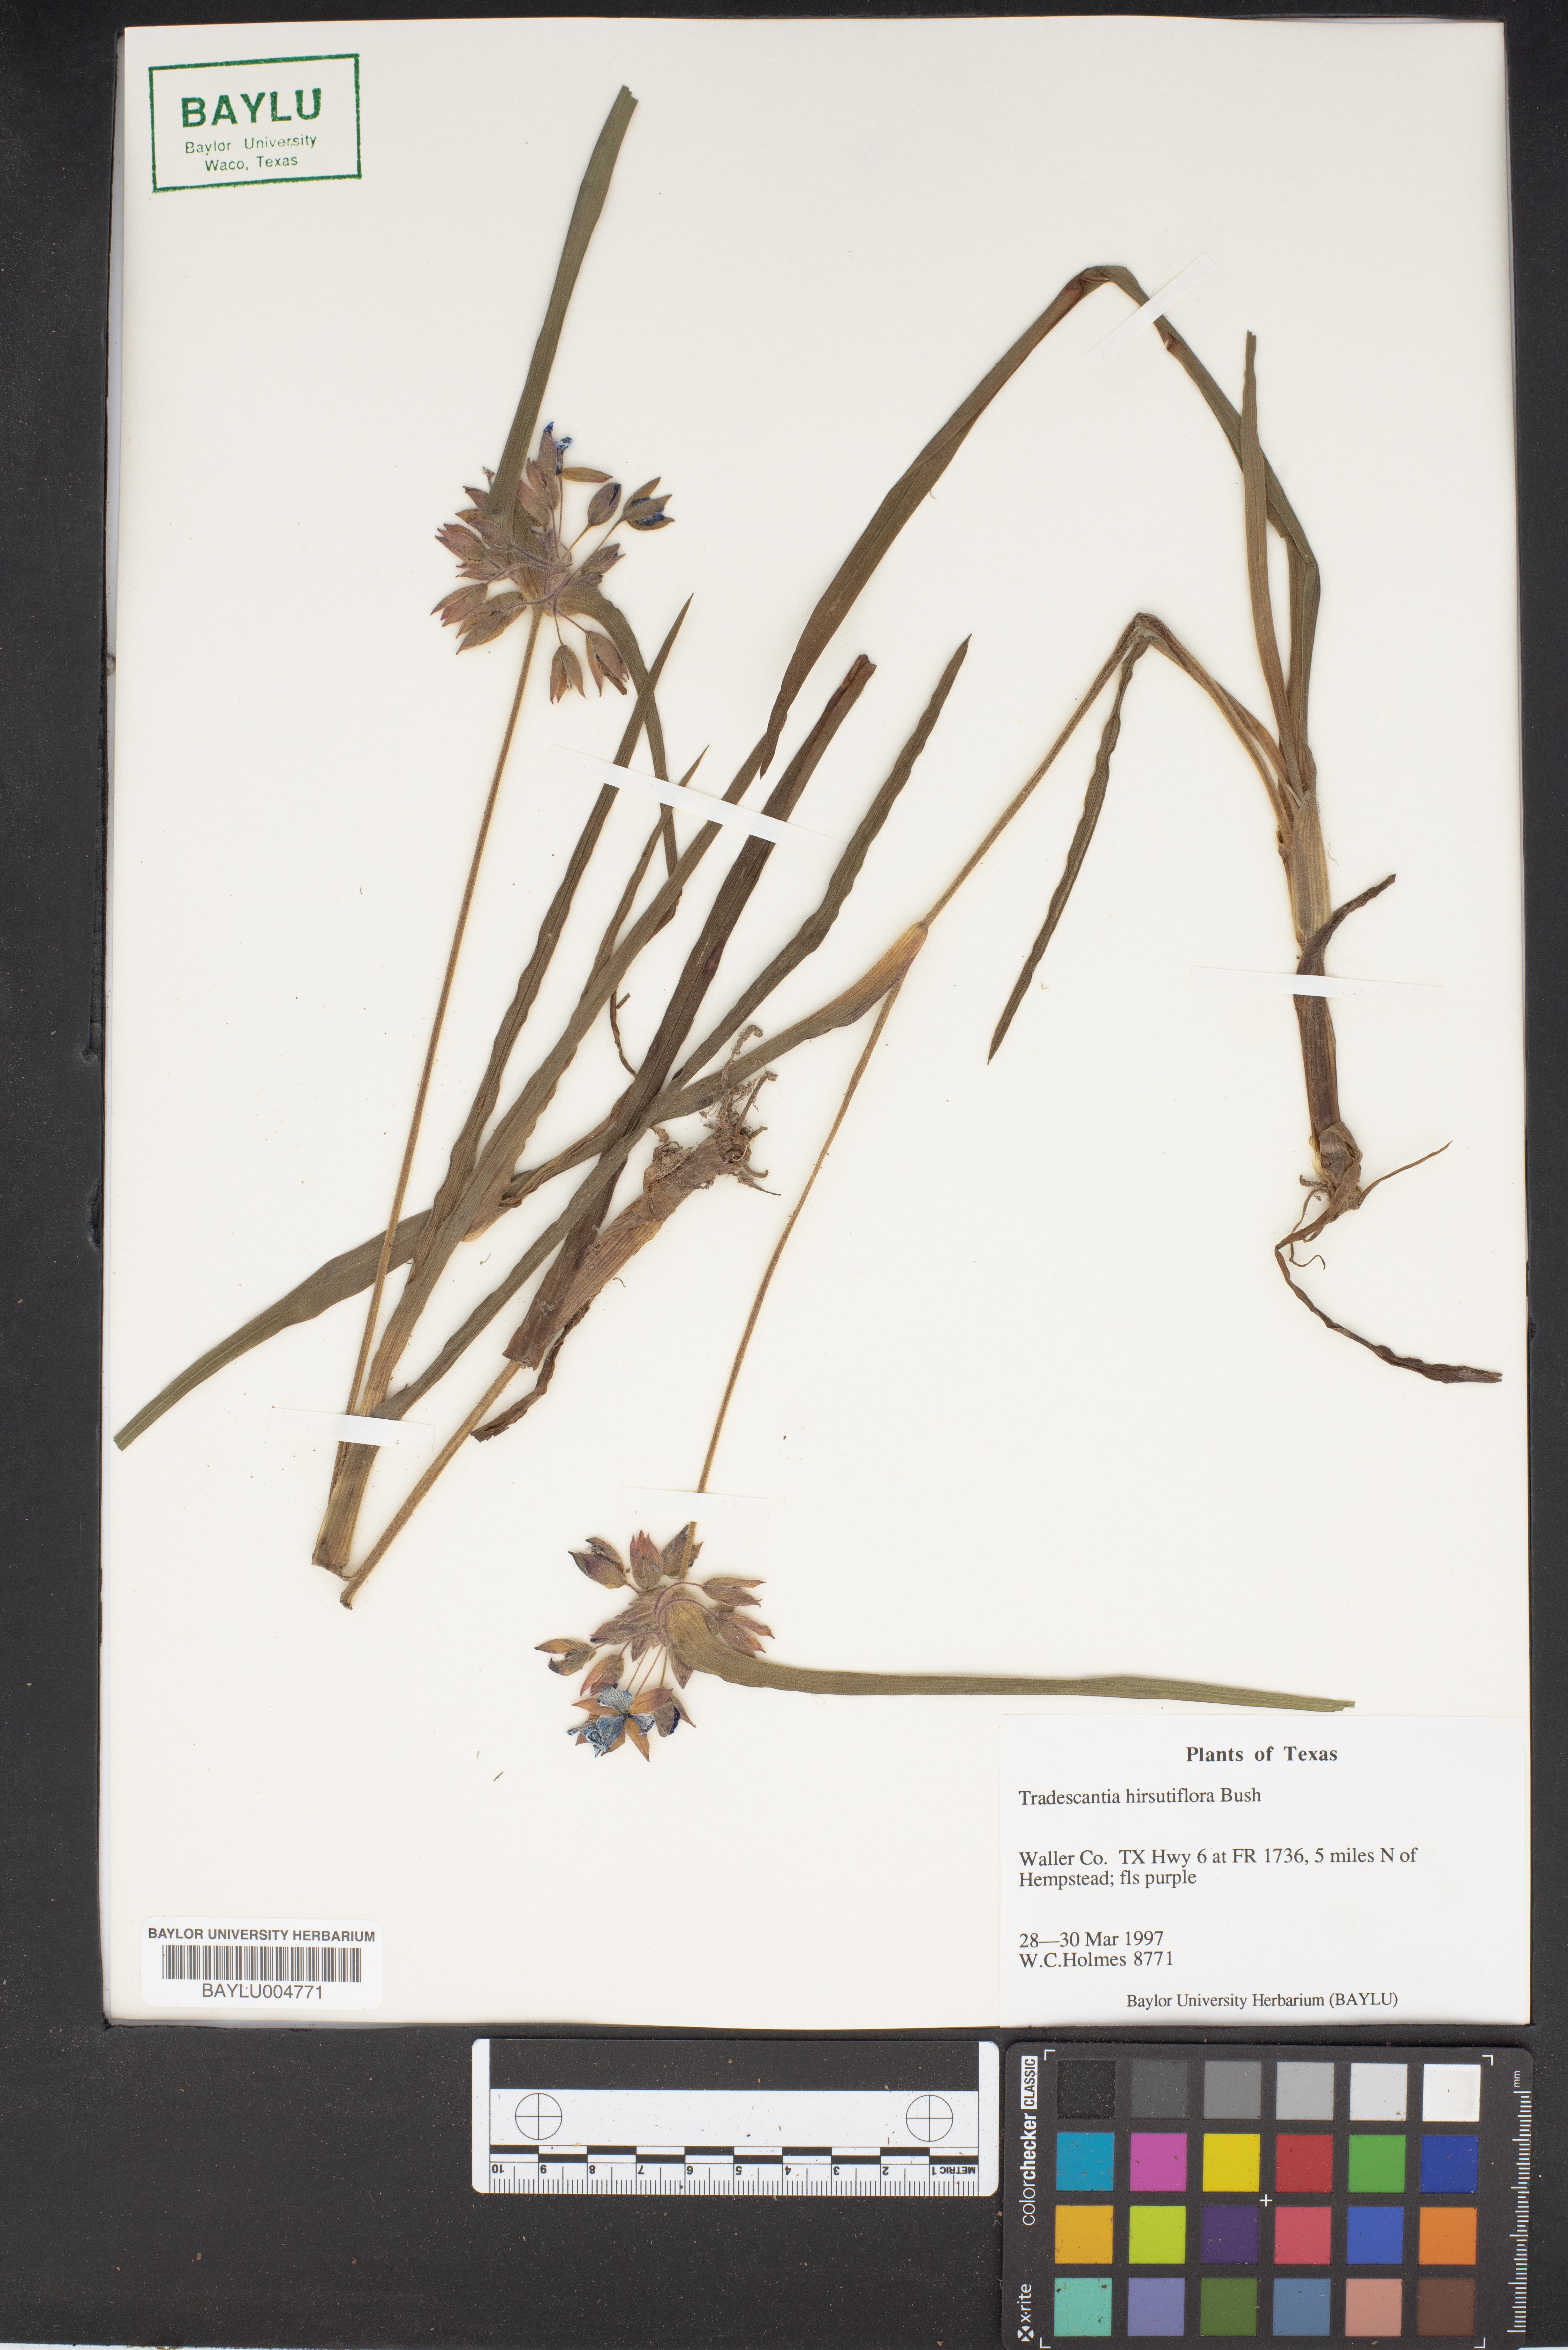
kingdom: Plantae
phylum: Tracheophyta
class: Liliopsida
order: Commelinales
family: Commelinaceae
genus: Tradescantia
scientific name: Tradescantia hirsutiflora
